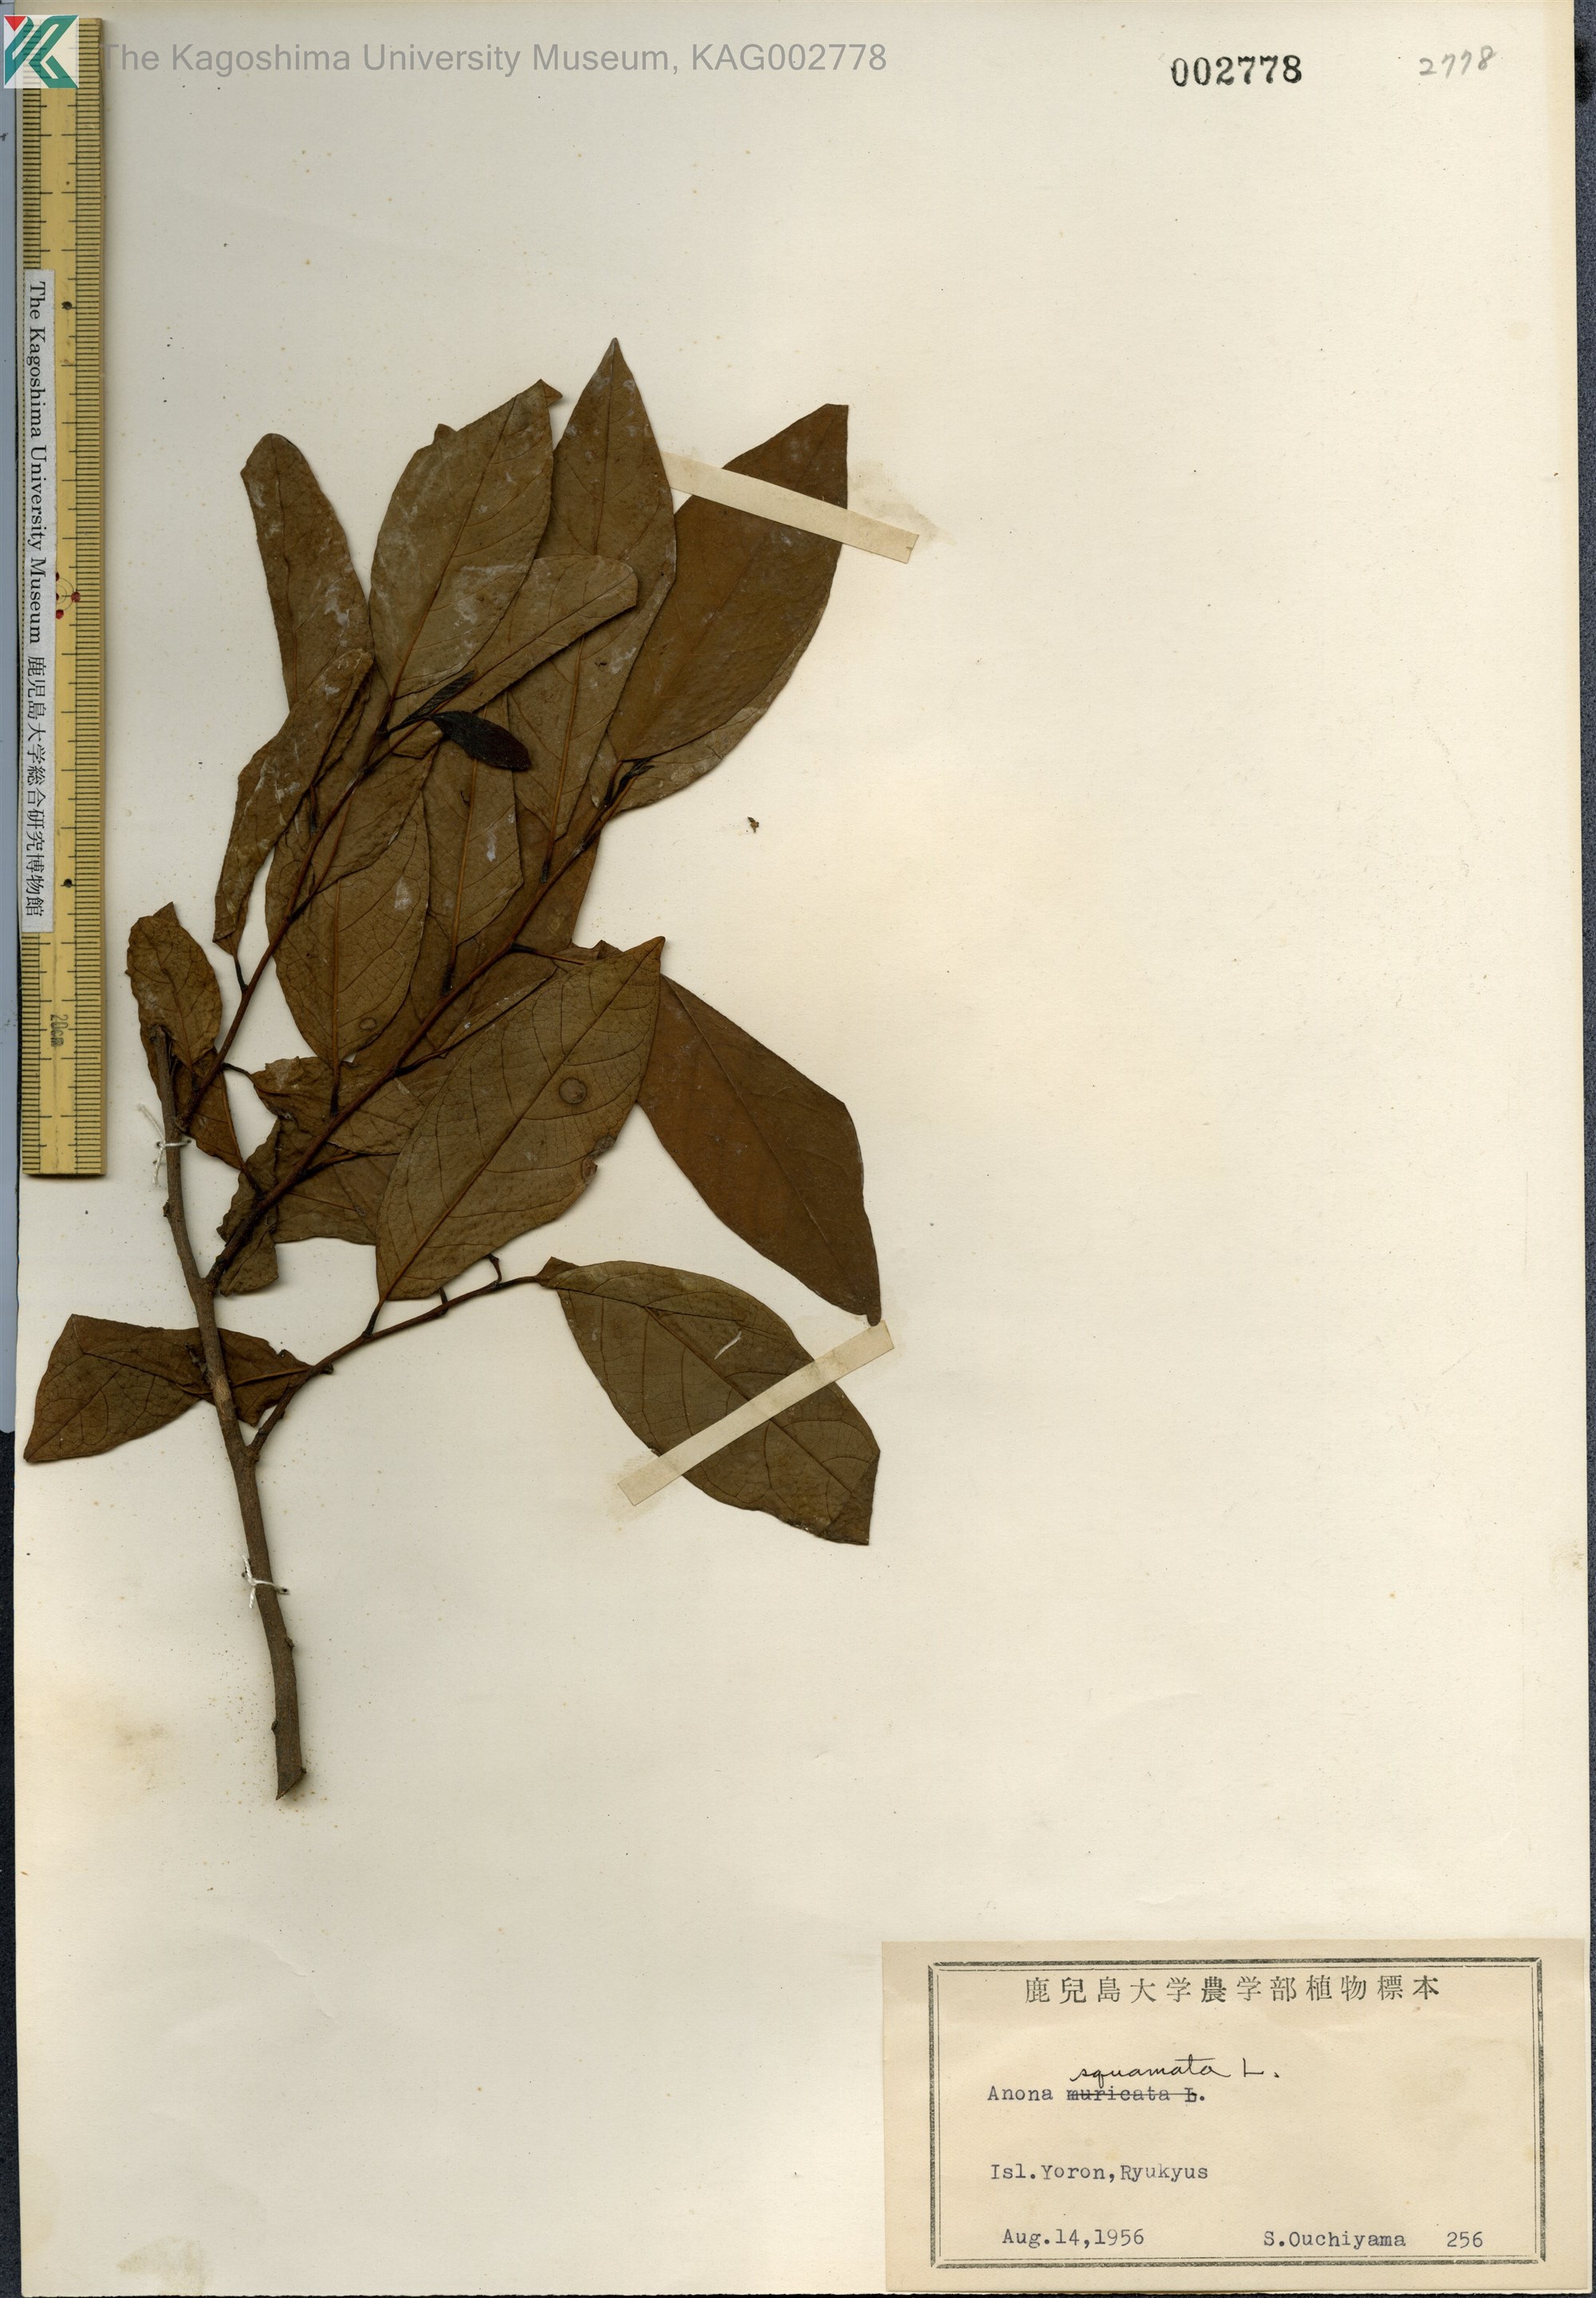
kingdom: Plantae
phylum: Tracheophyta
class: Magnoliopsida
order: Magnoliales
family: Annonaceae
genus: Annona
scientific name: Annona squamosa
